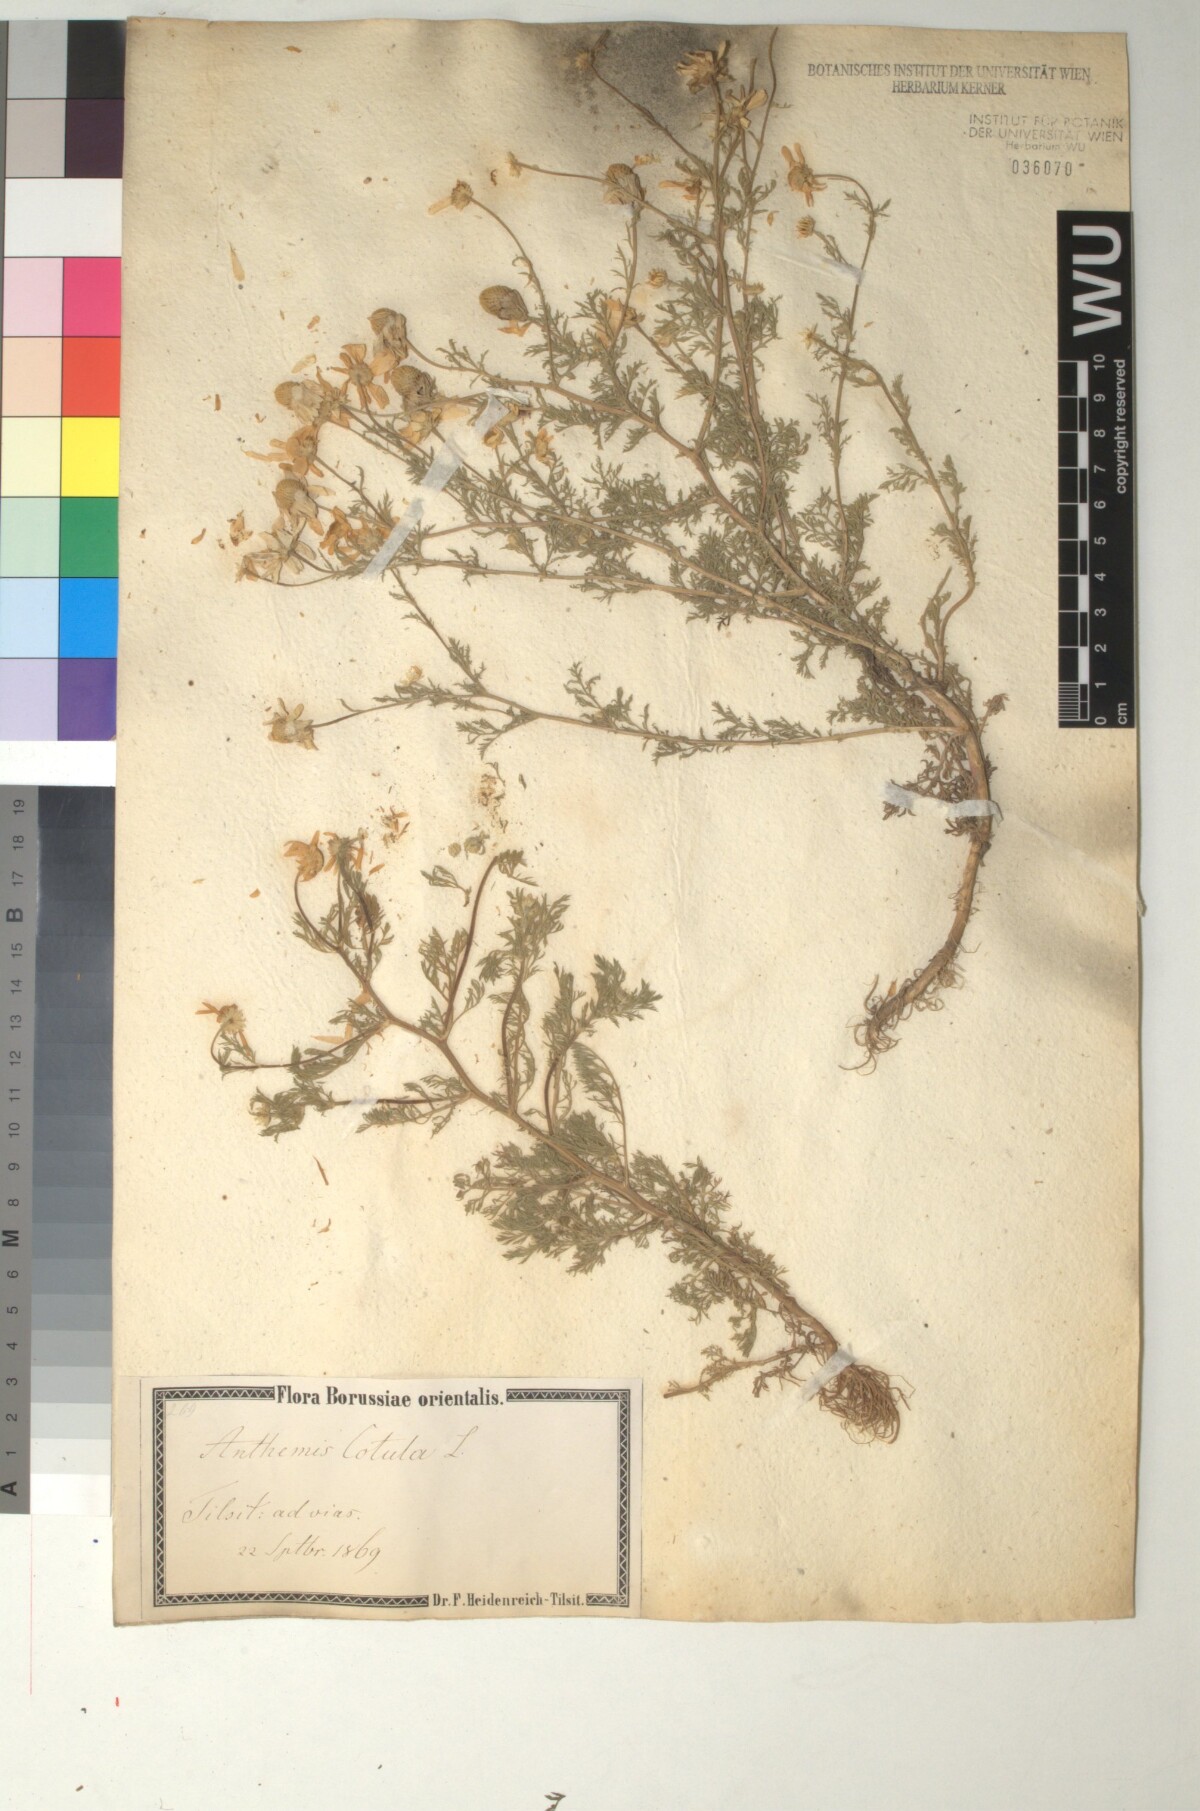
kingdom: Plantae
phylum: Tracheophyta
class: Magnoliopsida
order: Asterales
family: Asteraceae
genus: Anthemis
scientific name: Anthemis cotula
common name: Stinking chamomile
